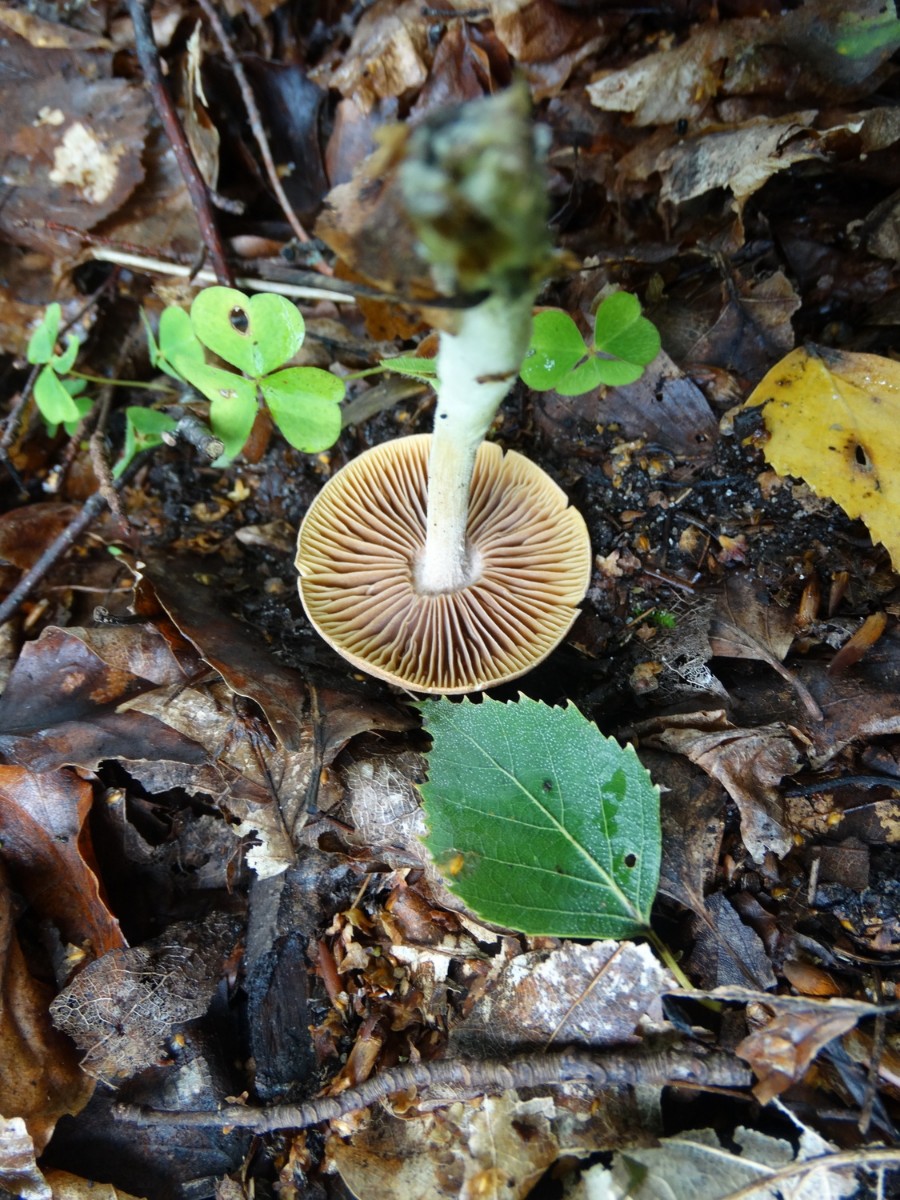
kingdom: Fungi
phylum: Basidiomycota
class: Agaricomycetes
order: Agaricales
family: Omphalotaceae
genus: Collybiopsis
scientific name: Collybiopsis peronata
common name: bestøvlet fladhat
